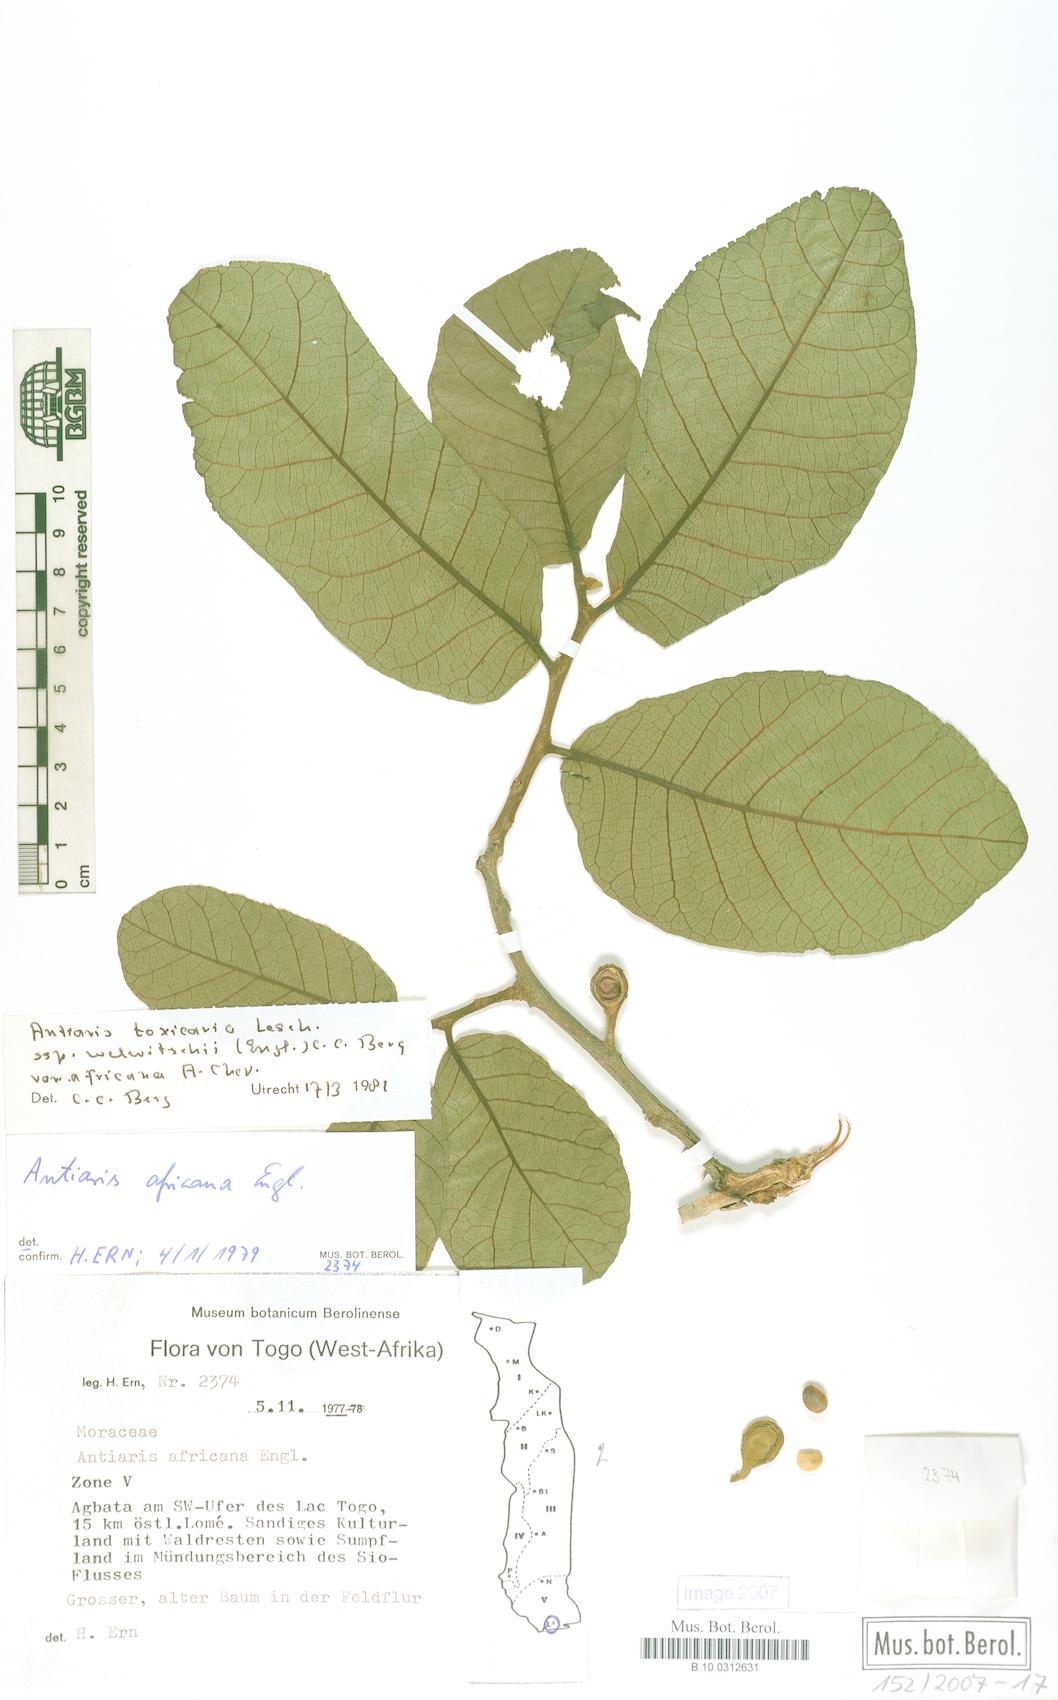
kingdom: Plantae
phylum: Tracheophyta
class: Magnoliopsida
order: Rosales
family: Moraceae
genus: Antiaris
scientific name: Antiaris toxicaria
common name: Sackingtree
